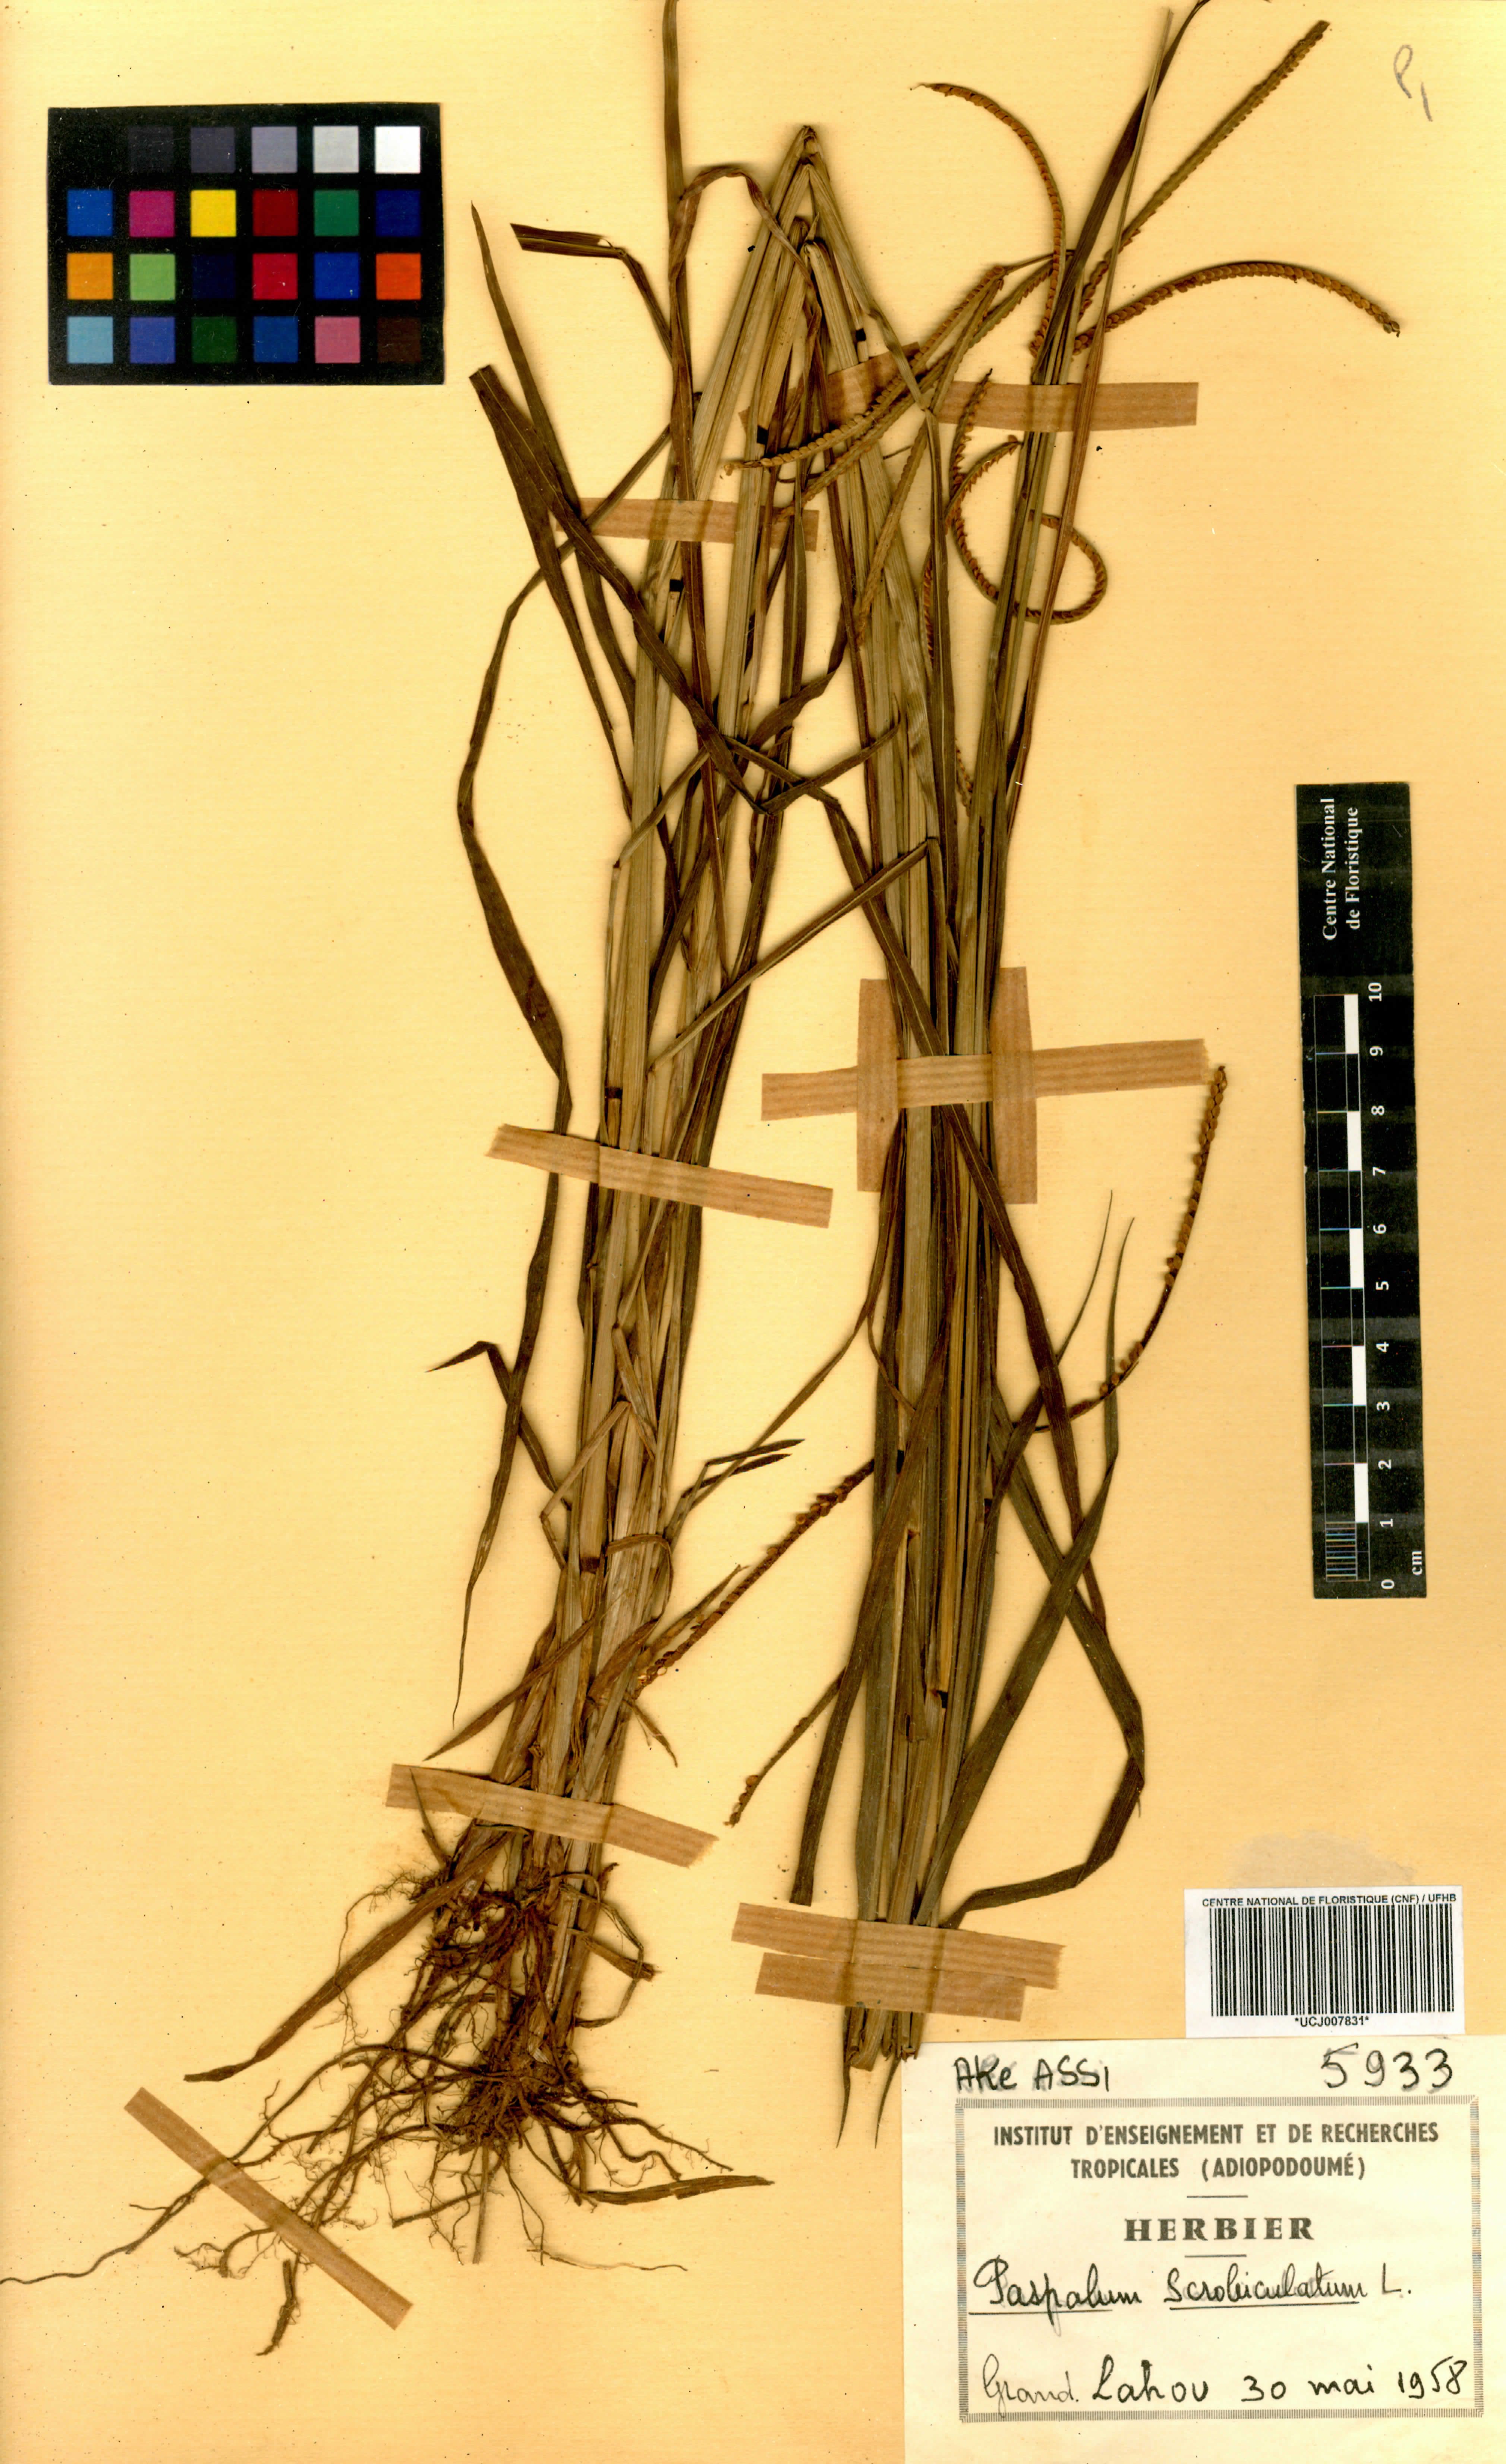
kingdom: Plantae
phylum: Tracheophyta
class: Liliopsida
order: Poales
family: Poaceae
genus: Paspalum
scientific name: Paspalum scrobiculatum
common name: Kodo millet
